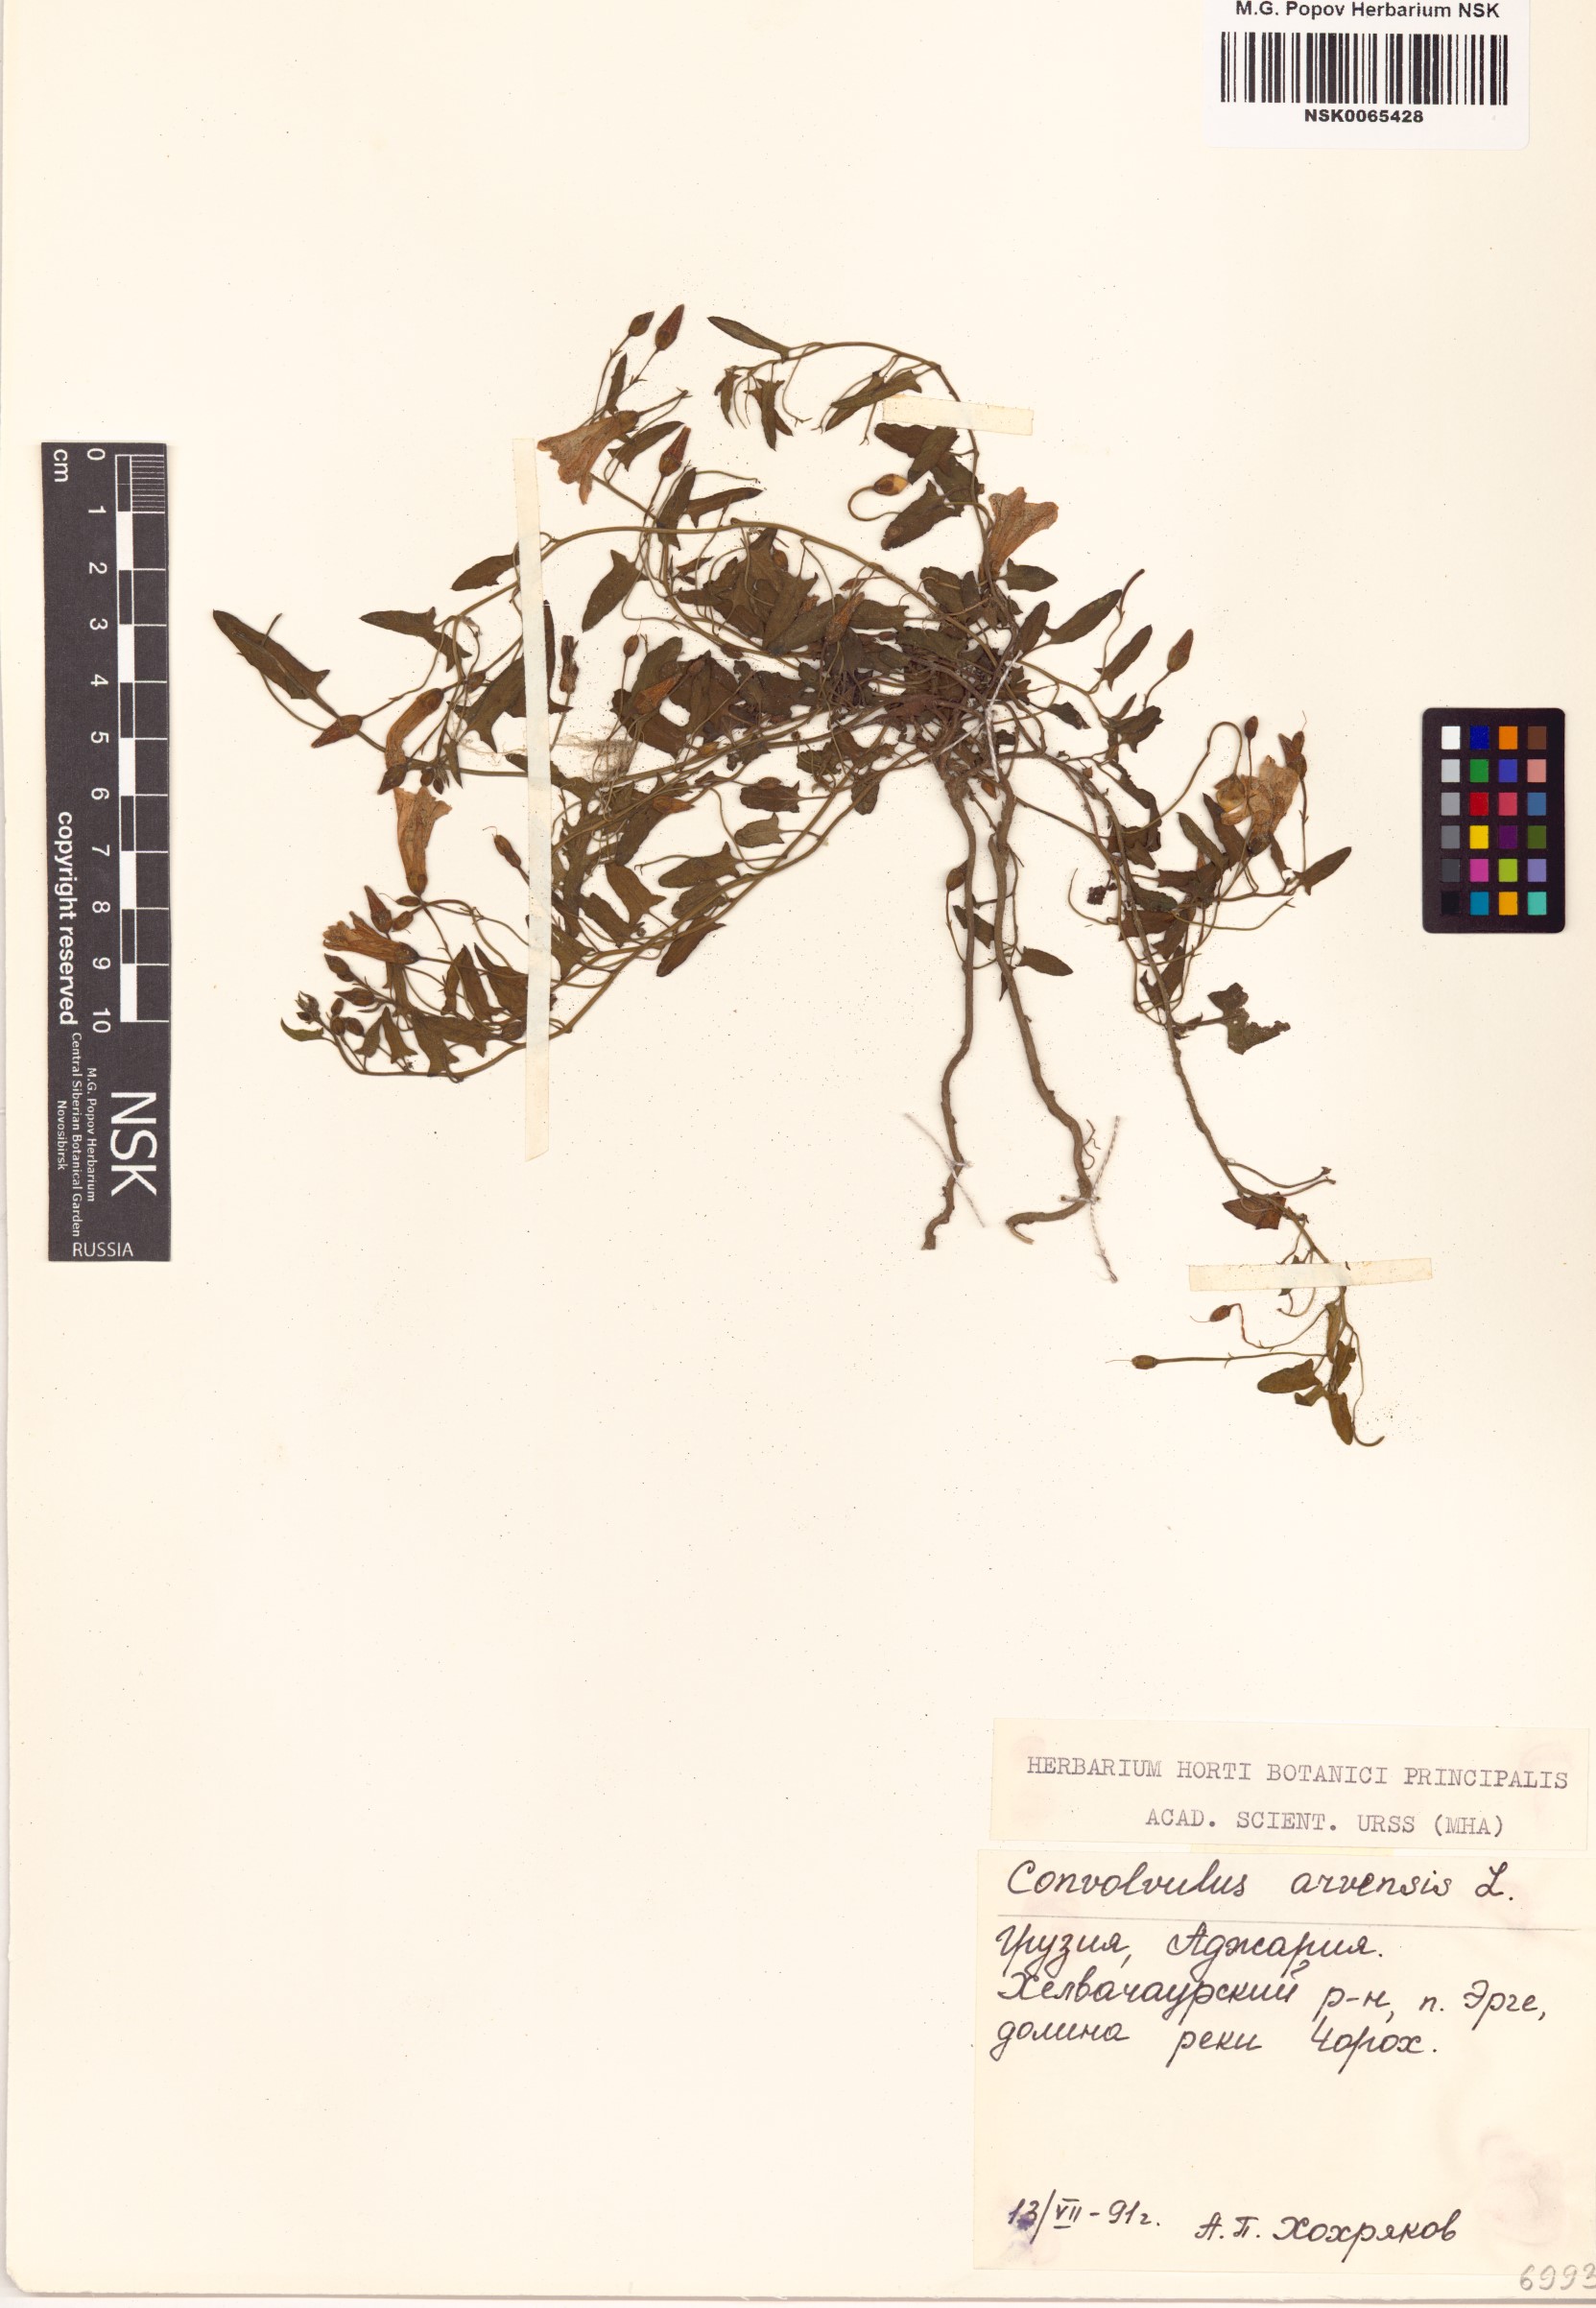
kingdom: Plantae
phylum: Tracheophyta
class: Magnoliopsida
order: Solanales
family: Convolvulaceae
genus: Convolvulus
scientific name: Convolvulus arvensis
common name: Field bindweed
